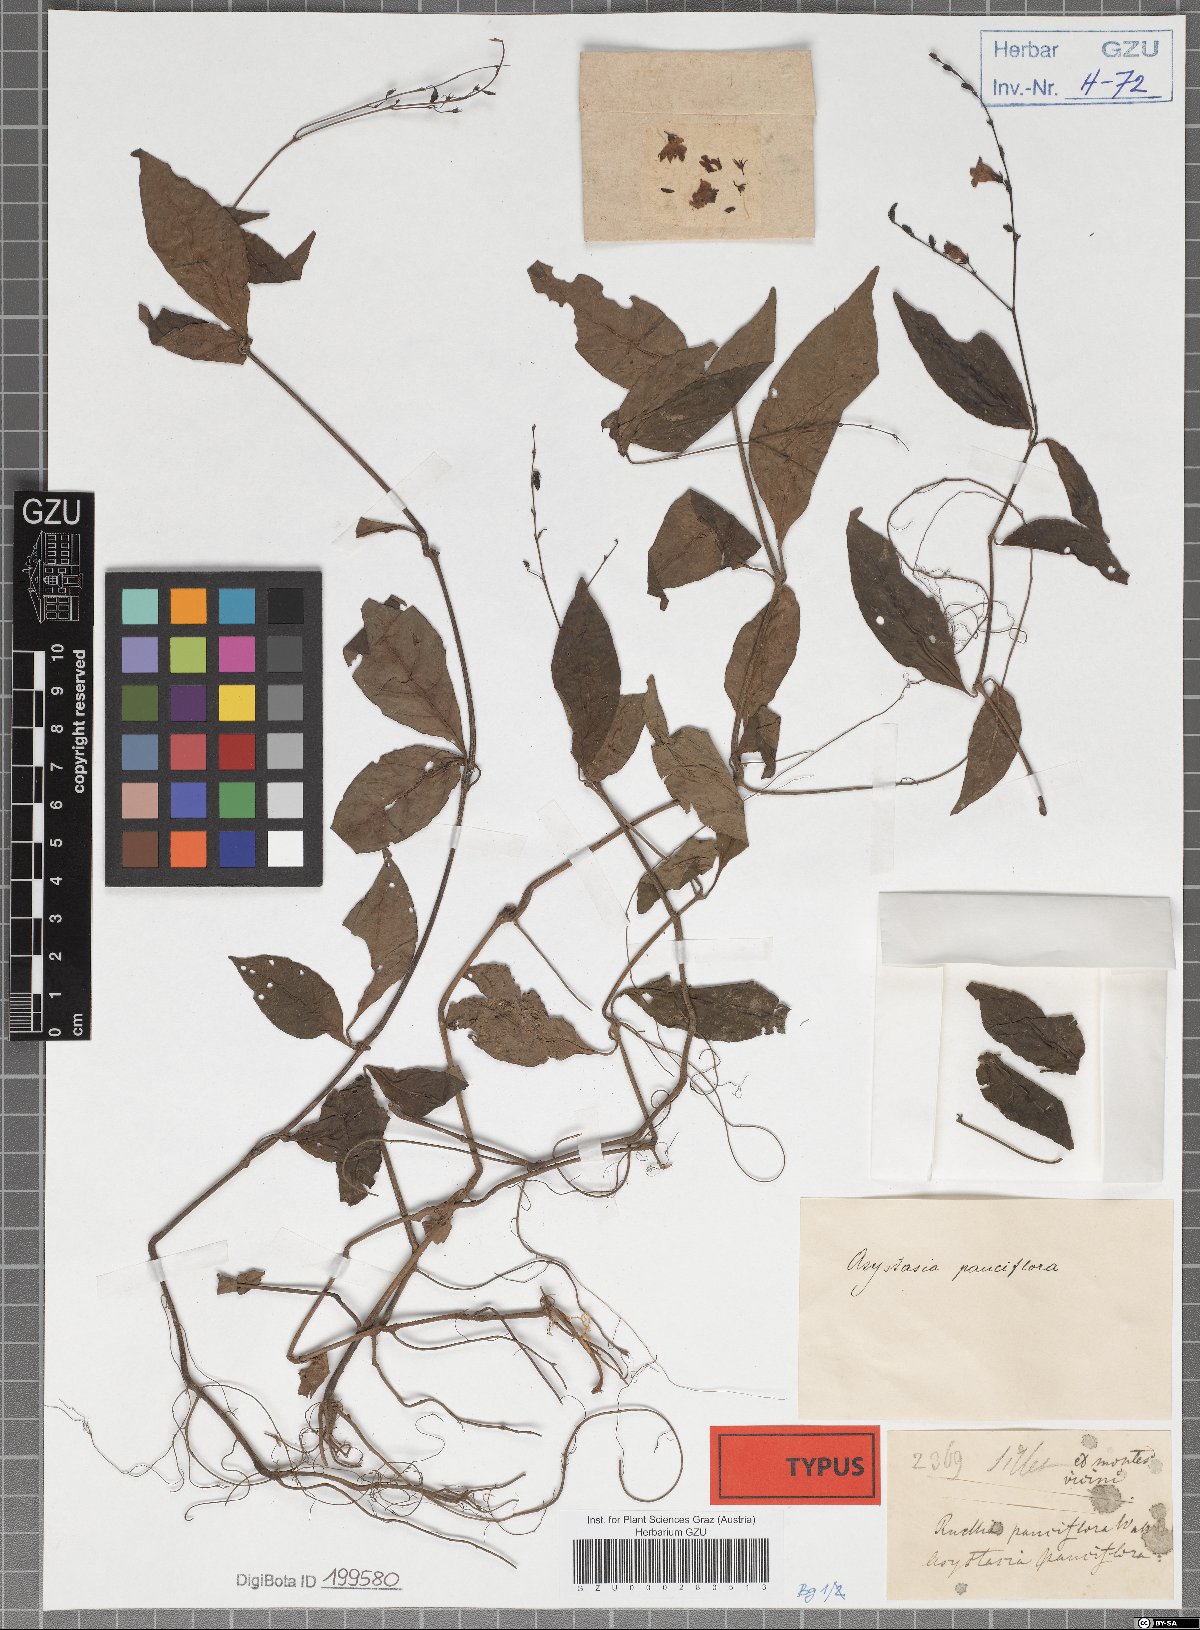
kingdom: Plantae
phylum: Tracheophyta
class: Magnoliopsida
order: Lamiales
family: Acanthaceae
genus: Codonacanthus
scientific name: Codonacanthus pauciflorus
